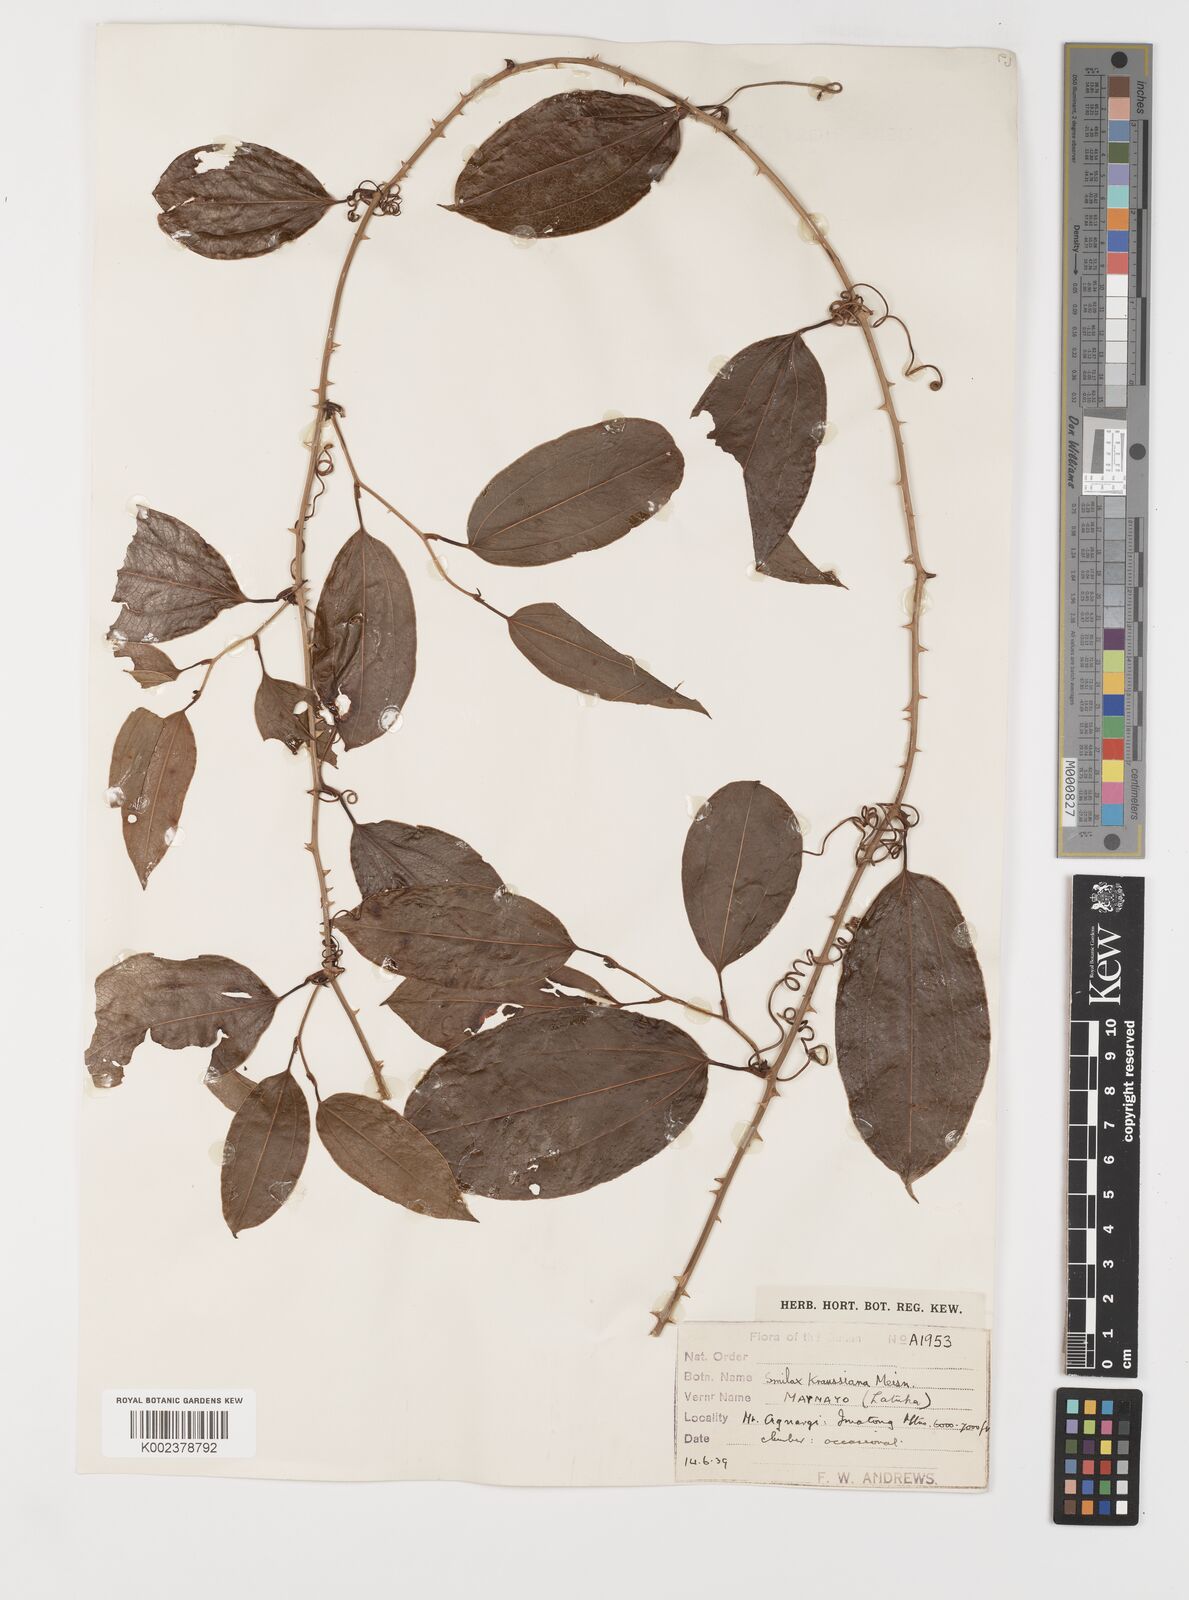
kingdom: Plantae
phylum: Tracheophyta
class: Liliopsida
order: Liliales
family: Smilacaceae
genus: Smilax
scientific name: Smilax anceps
